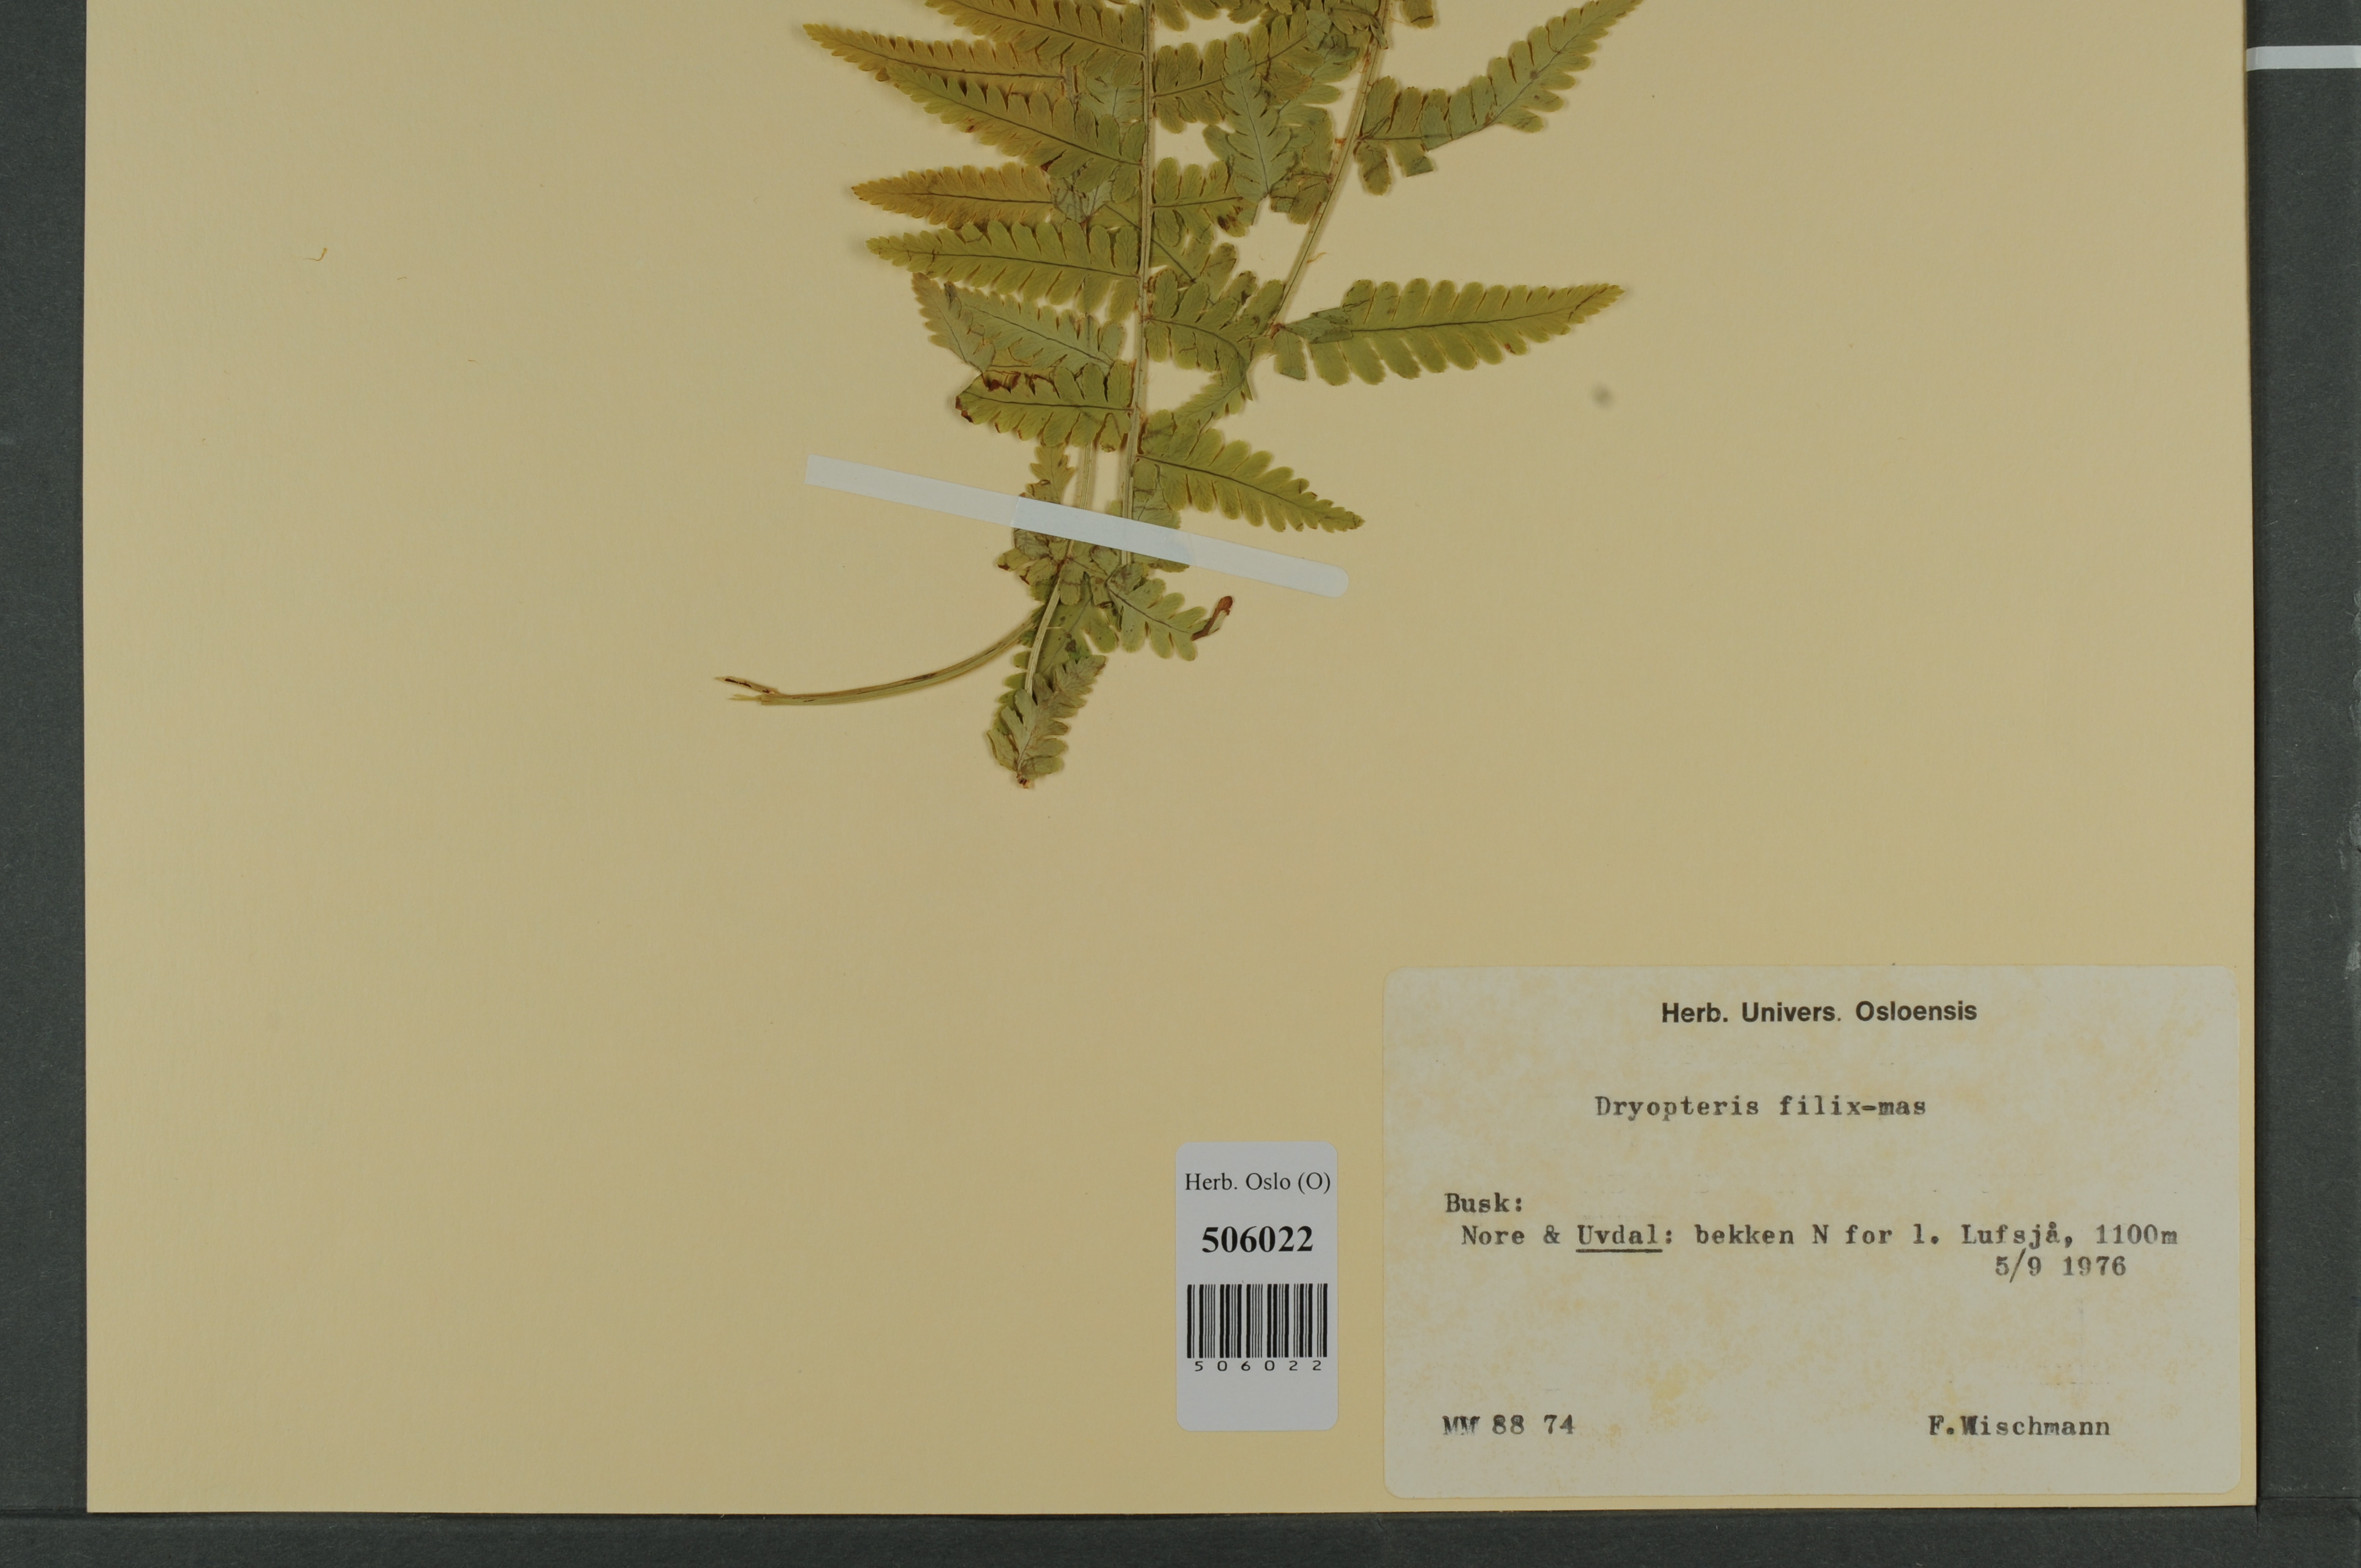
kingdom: Plantae
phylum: Tracheophyta
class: Polypodiopsida
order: Polypodiales
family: Dryopteridaceae
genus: Dryopteris
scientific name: Dryopteris filix-mas
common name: Male fern
